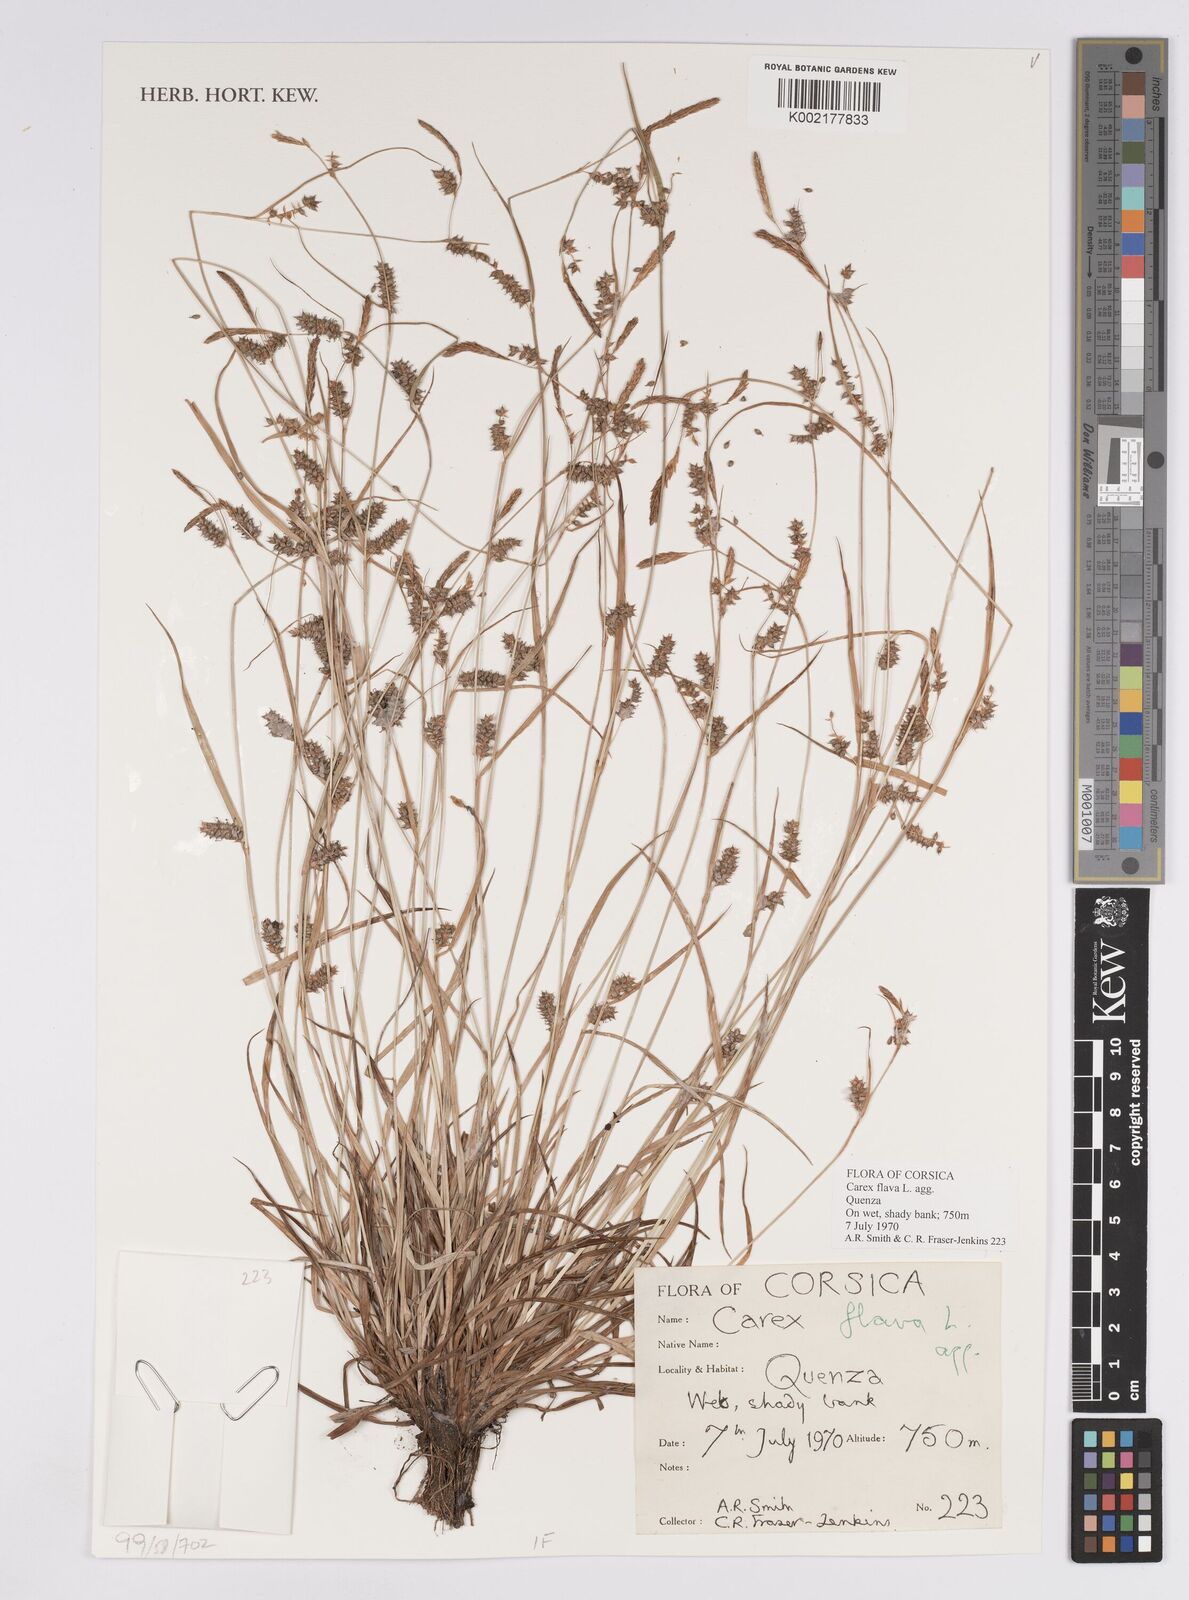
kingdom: Plantae
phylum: Tracheophyta
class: Liliopsida
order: Poales
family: Cyperaceae
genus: Carex
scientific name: Carex flava
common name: Large yellow-sedge
